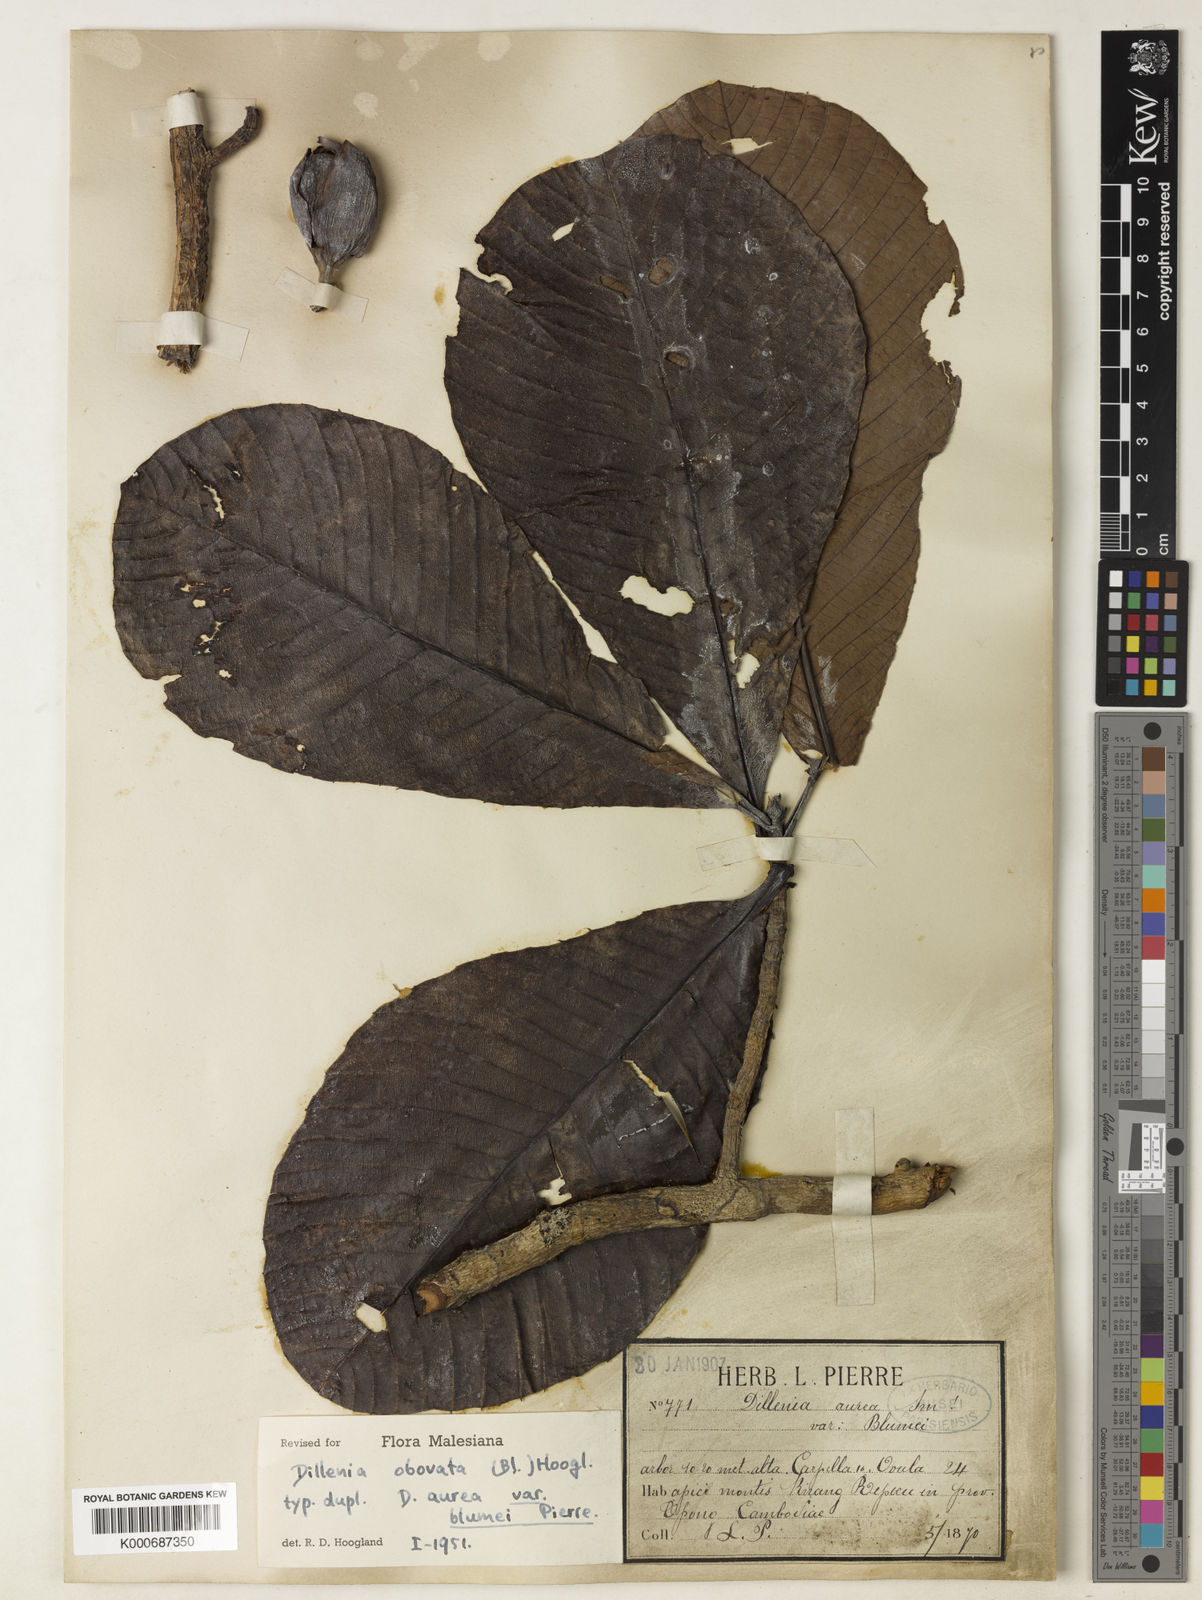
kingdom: Plantae
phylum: Tracheophyta
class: Magnoliopsida
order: Dilleniales
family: Dilleniaceae
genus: Dillenia
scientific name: Dillenia obovata
